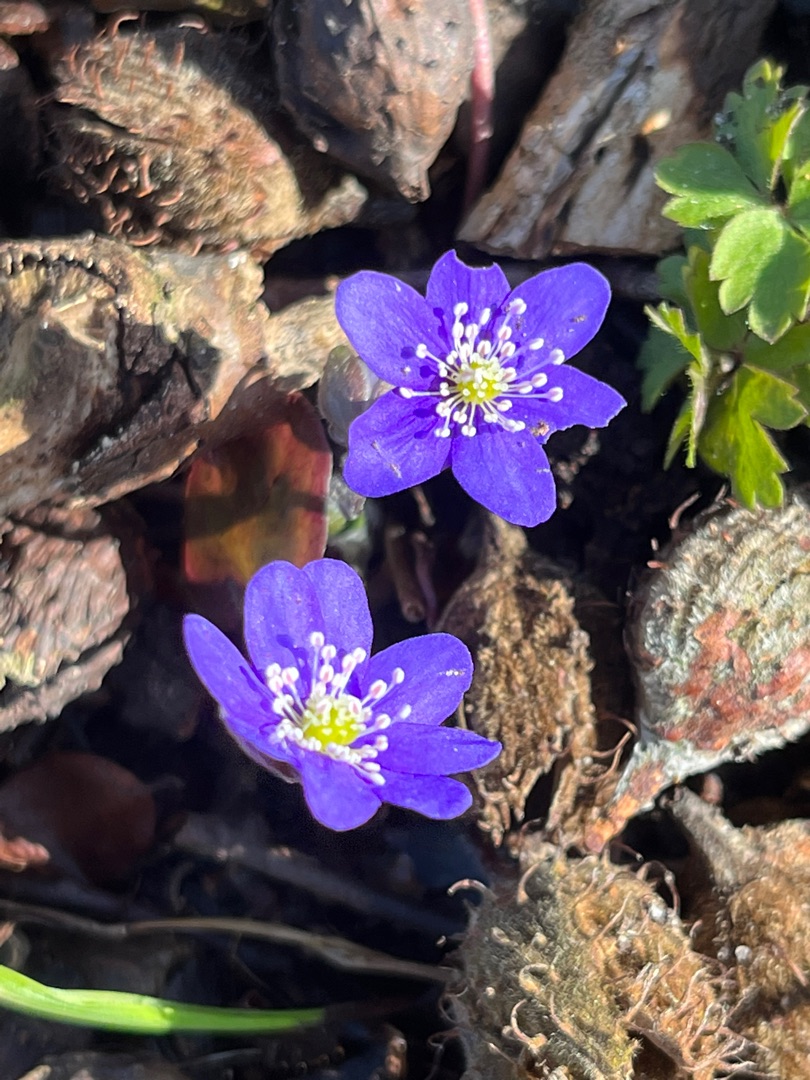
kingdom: Plantae
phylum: Tracheophyta
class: Magnoliopsida
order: Ranunculales
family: Ranunculaceae
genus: Hepatica
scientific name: Hepatica nobilis
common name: Blå anemone
